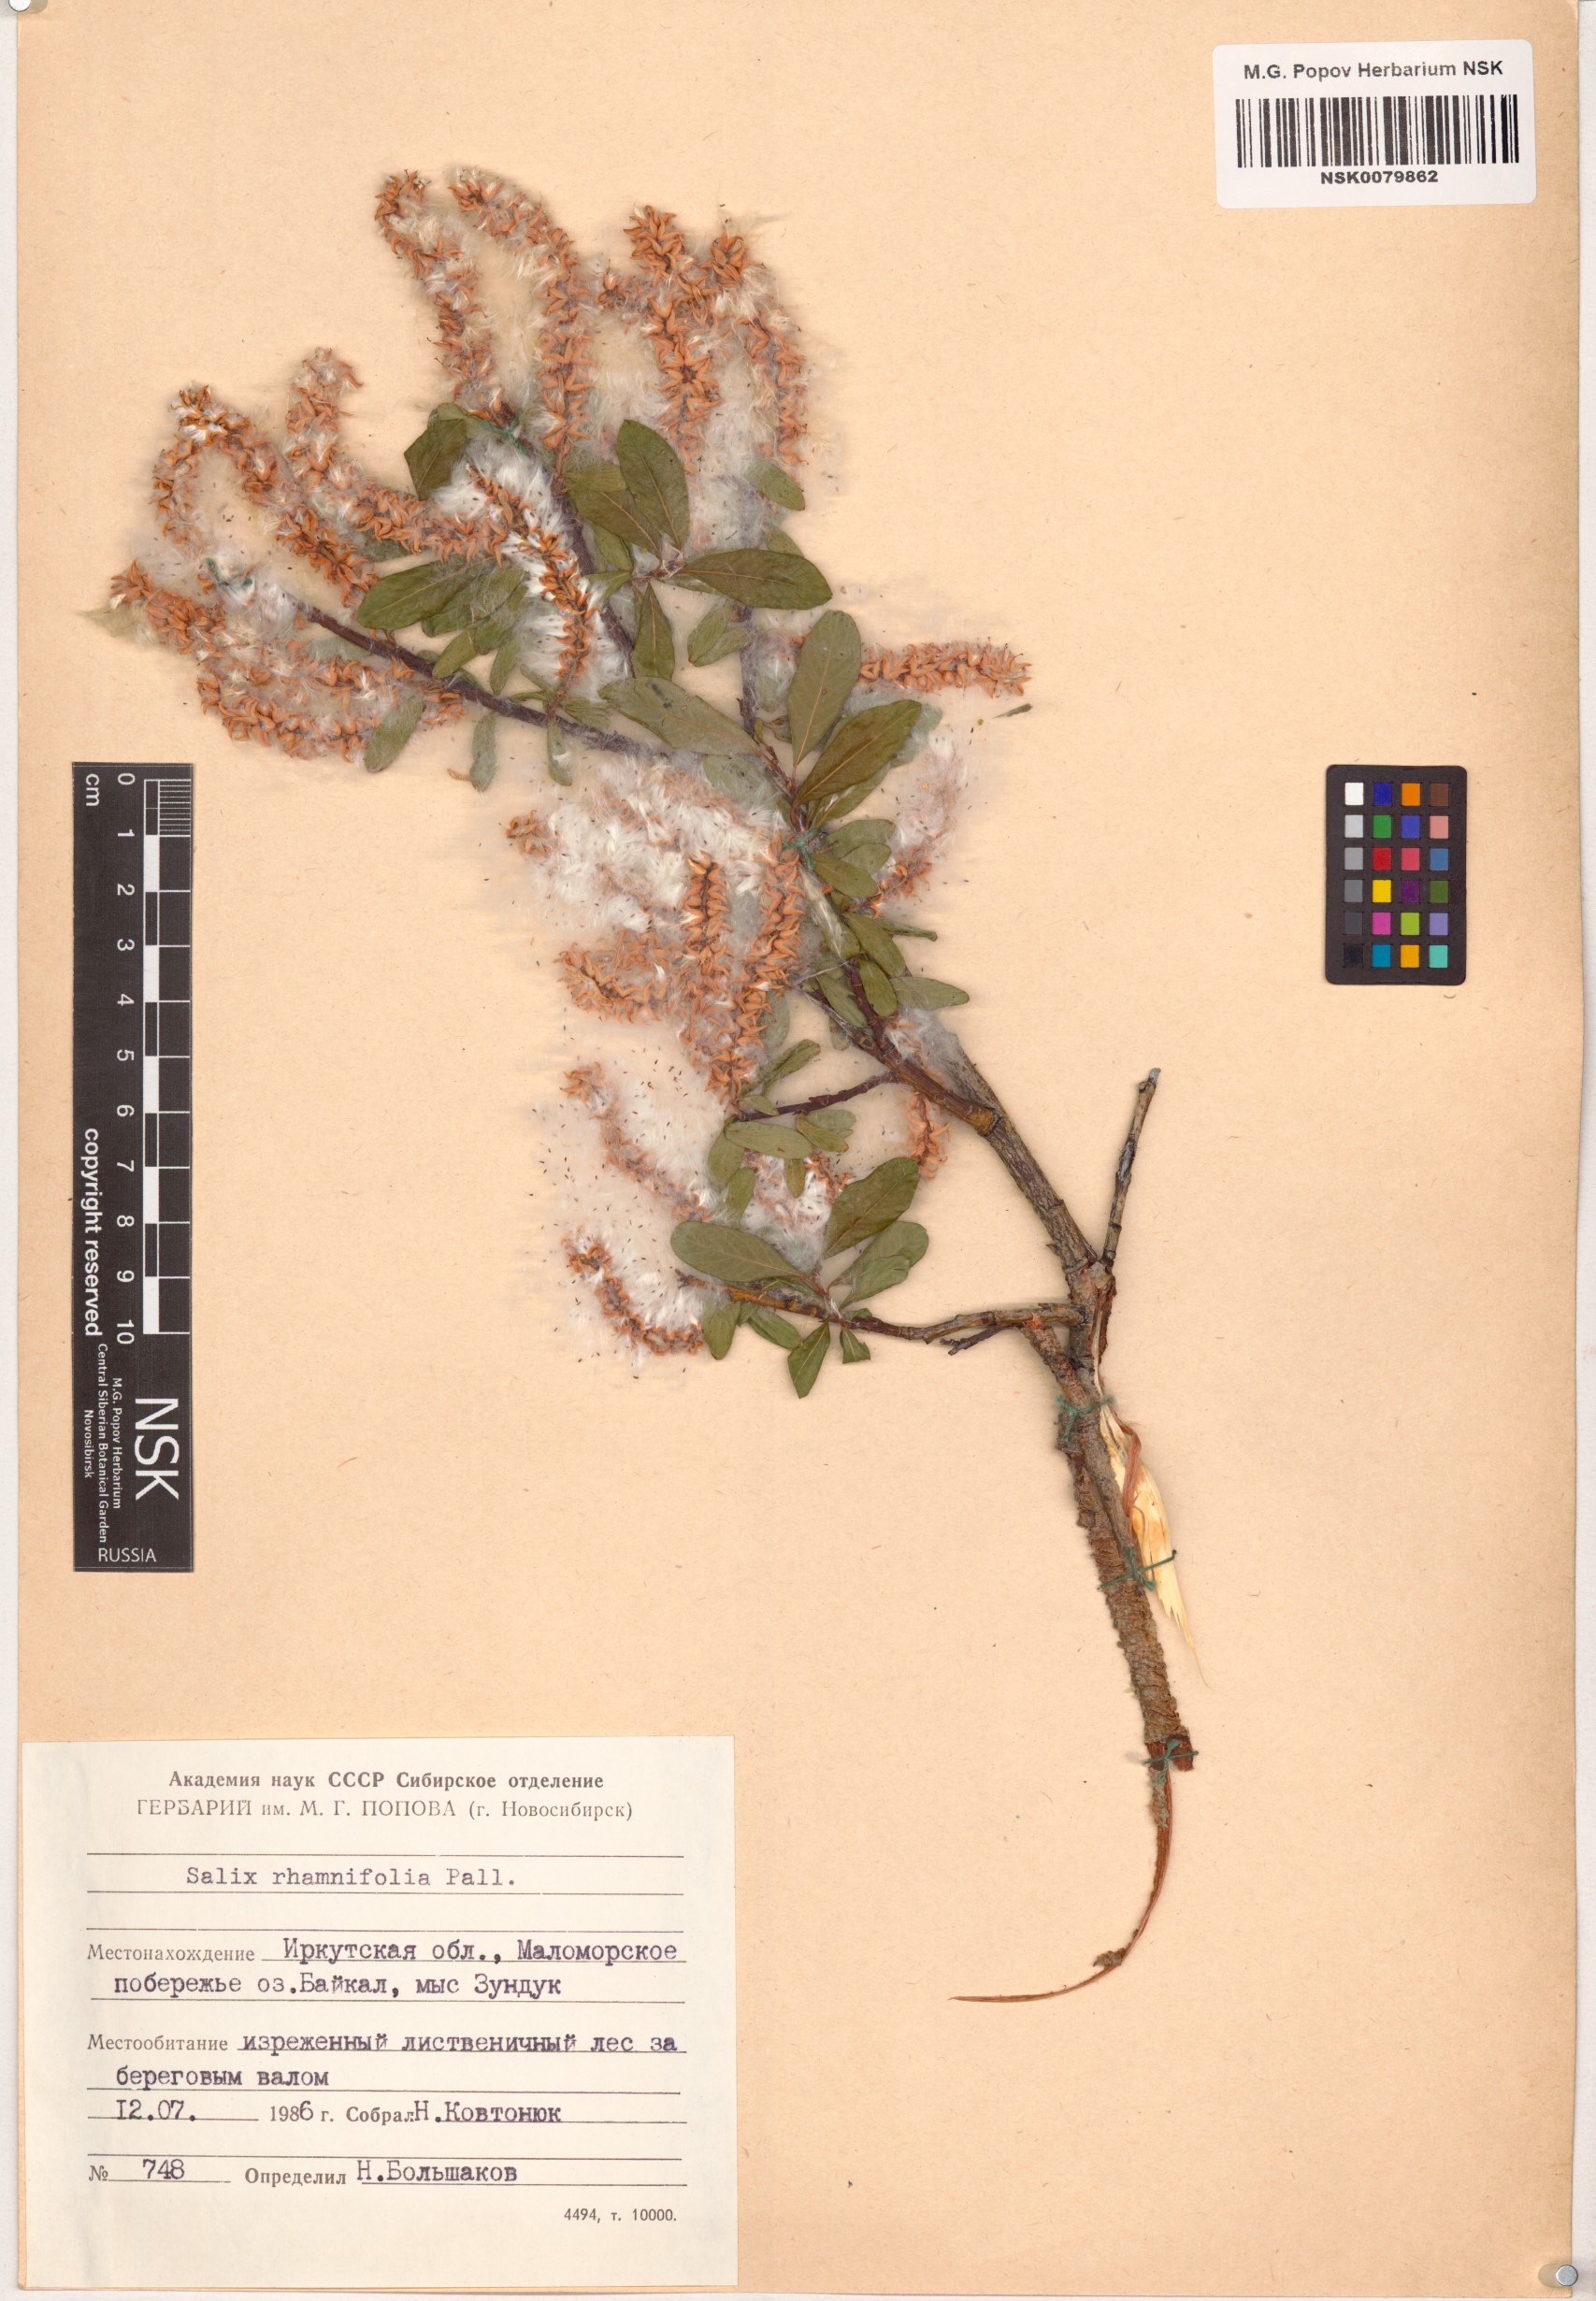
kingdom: Plantae
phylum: Tracheophyta
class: Magnoliopsida
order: Malpighiales
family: Salicaceae
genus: Salix
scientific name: Salix rhamnifolia
